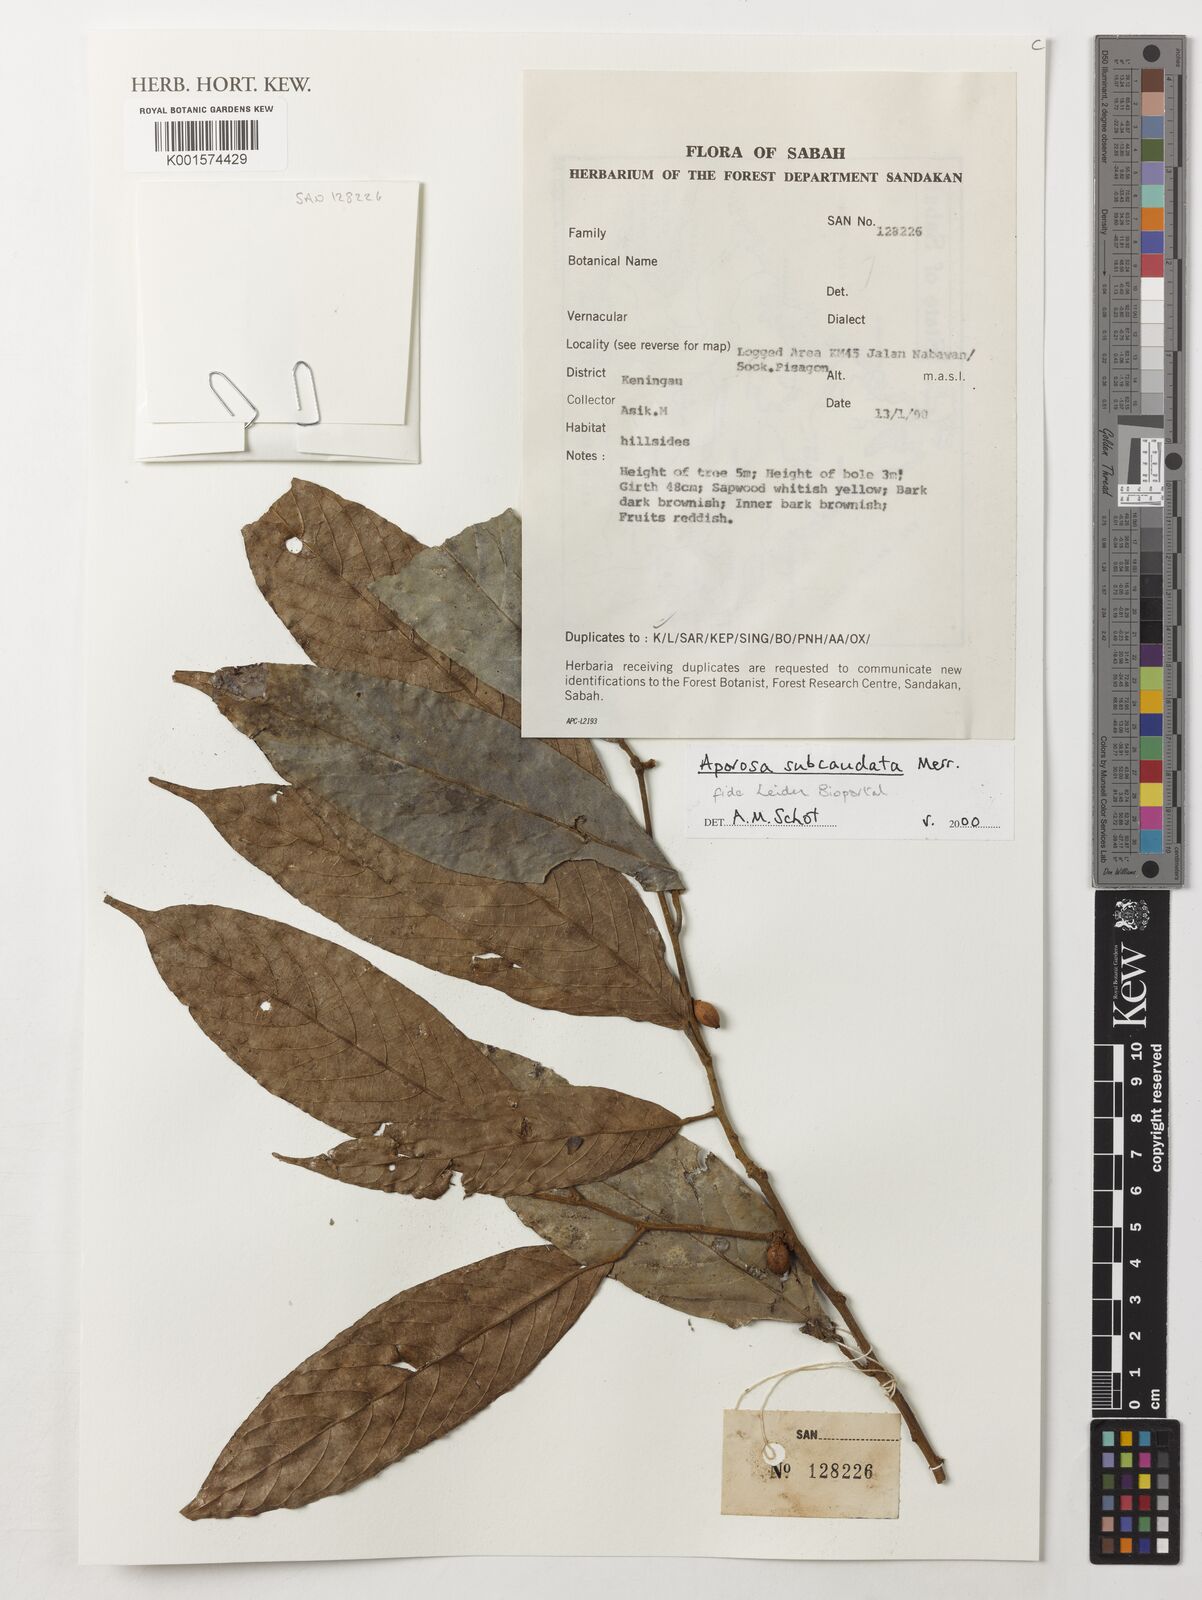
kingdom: Plantae
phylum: Tracheophyta
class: Magnoliopsida
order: Malpighiales
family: Phyllanthaceae
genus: Aporosa
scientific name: Aporosa subcaudata
